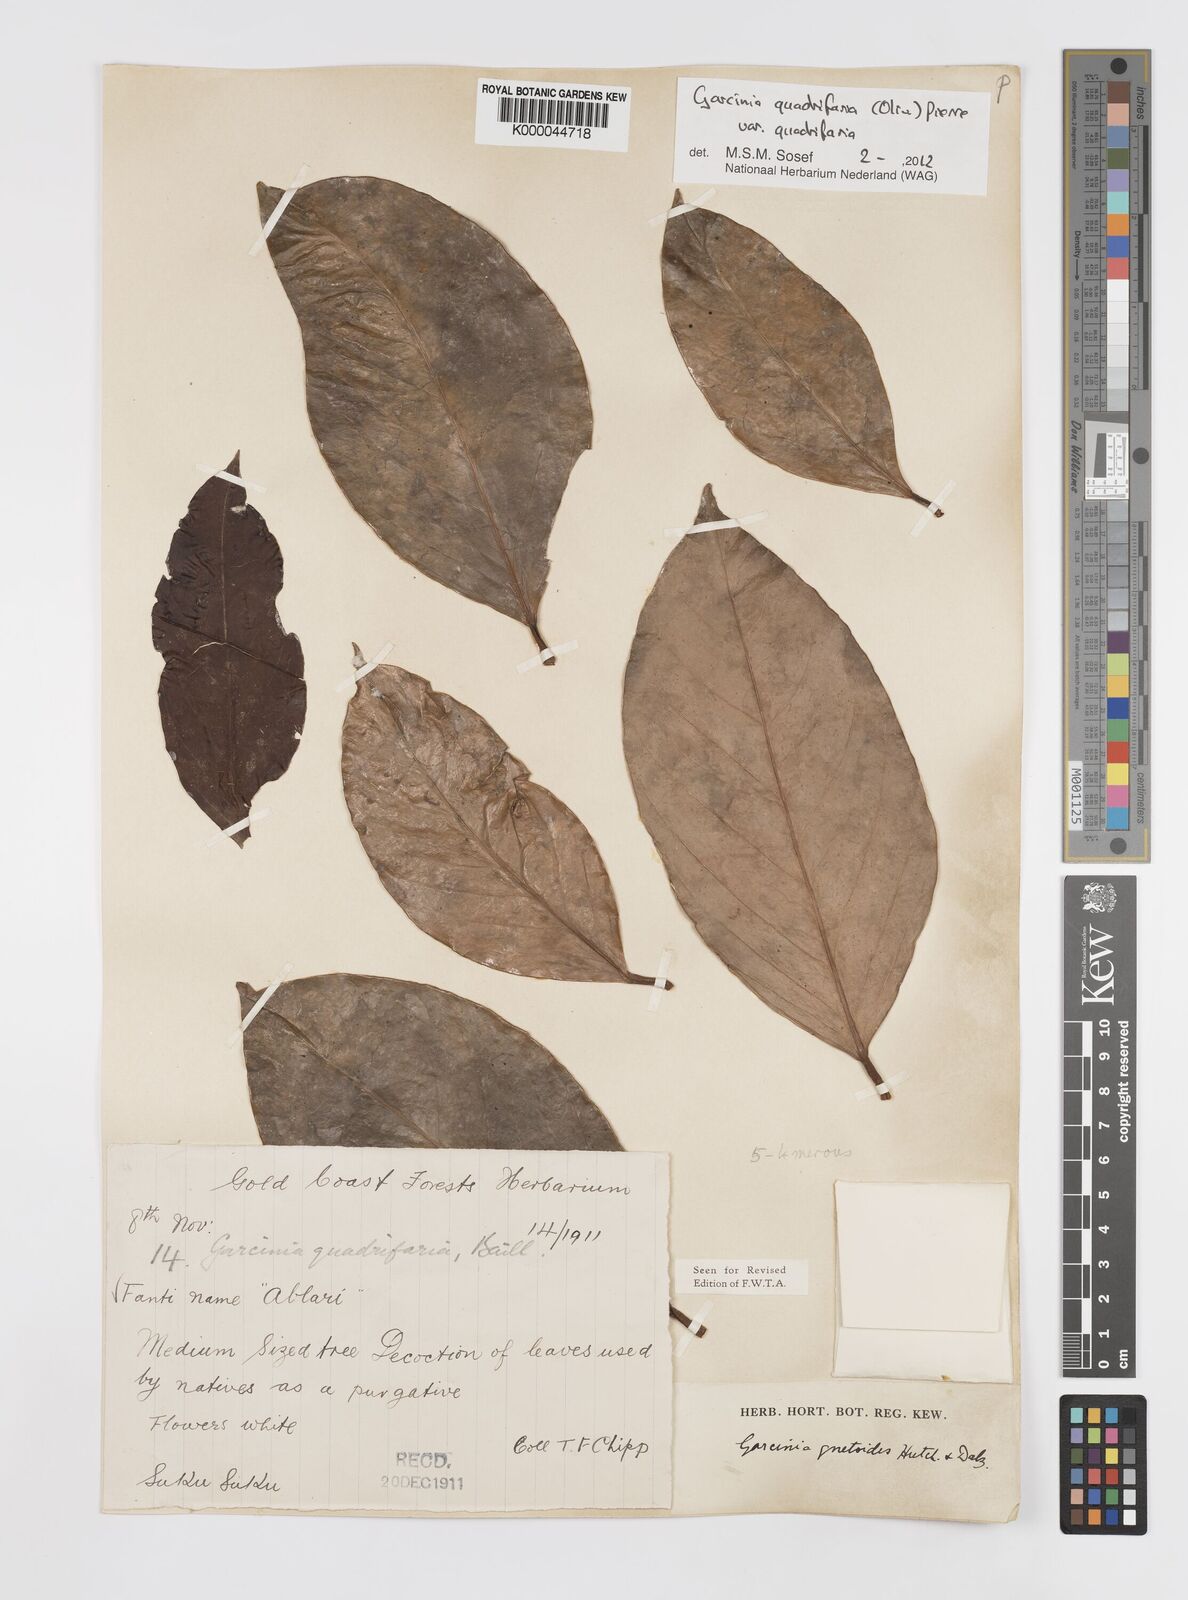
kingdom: Plantae
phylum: Tracheophyta
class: Magnoliopsida
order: Malpighiales
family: Clusiaceae
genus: Garcinia
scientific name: Garcinia gnetoides
